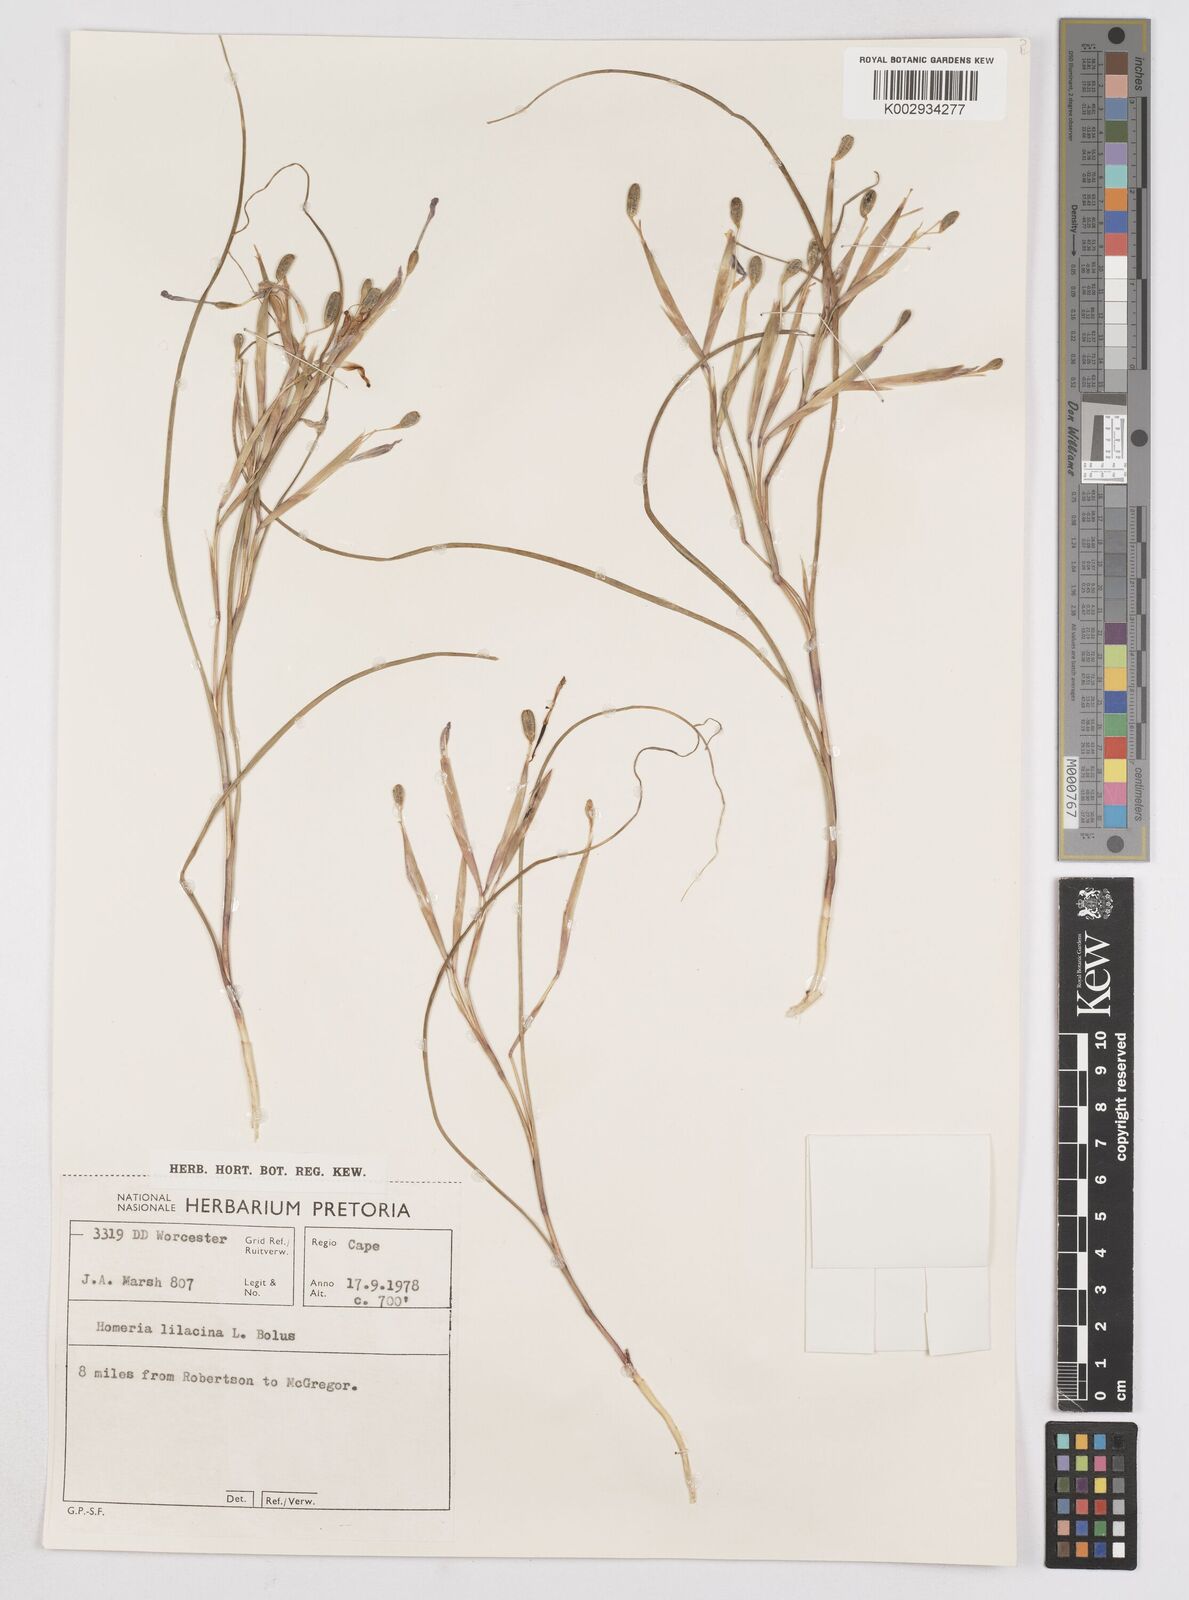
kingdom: Plantae
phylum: Tracheophyta
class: Liliopsida
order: Asparagales
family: Iridaceae
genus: Moraea
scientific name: Moraea
